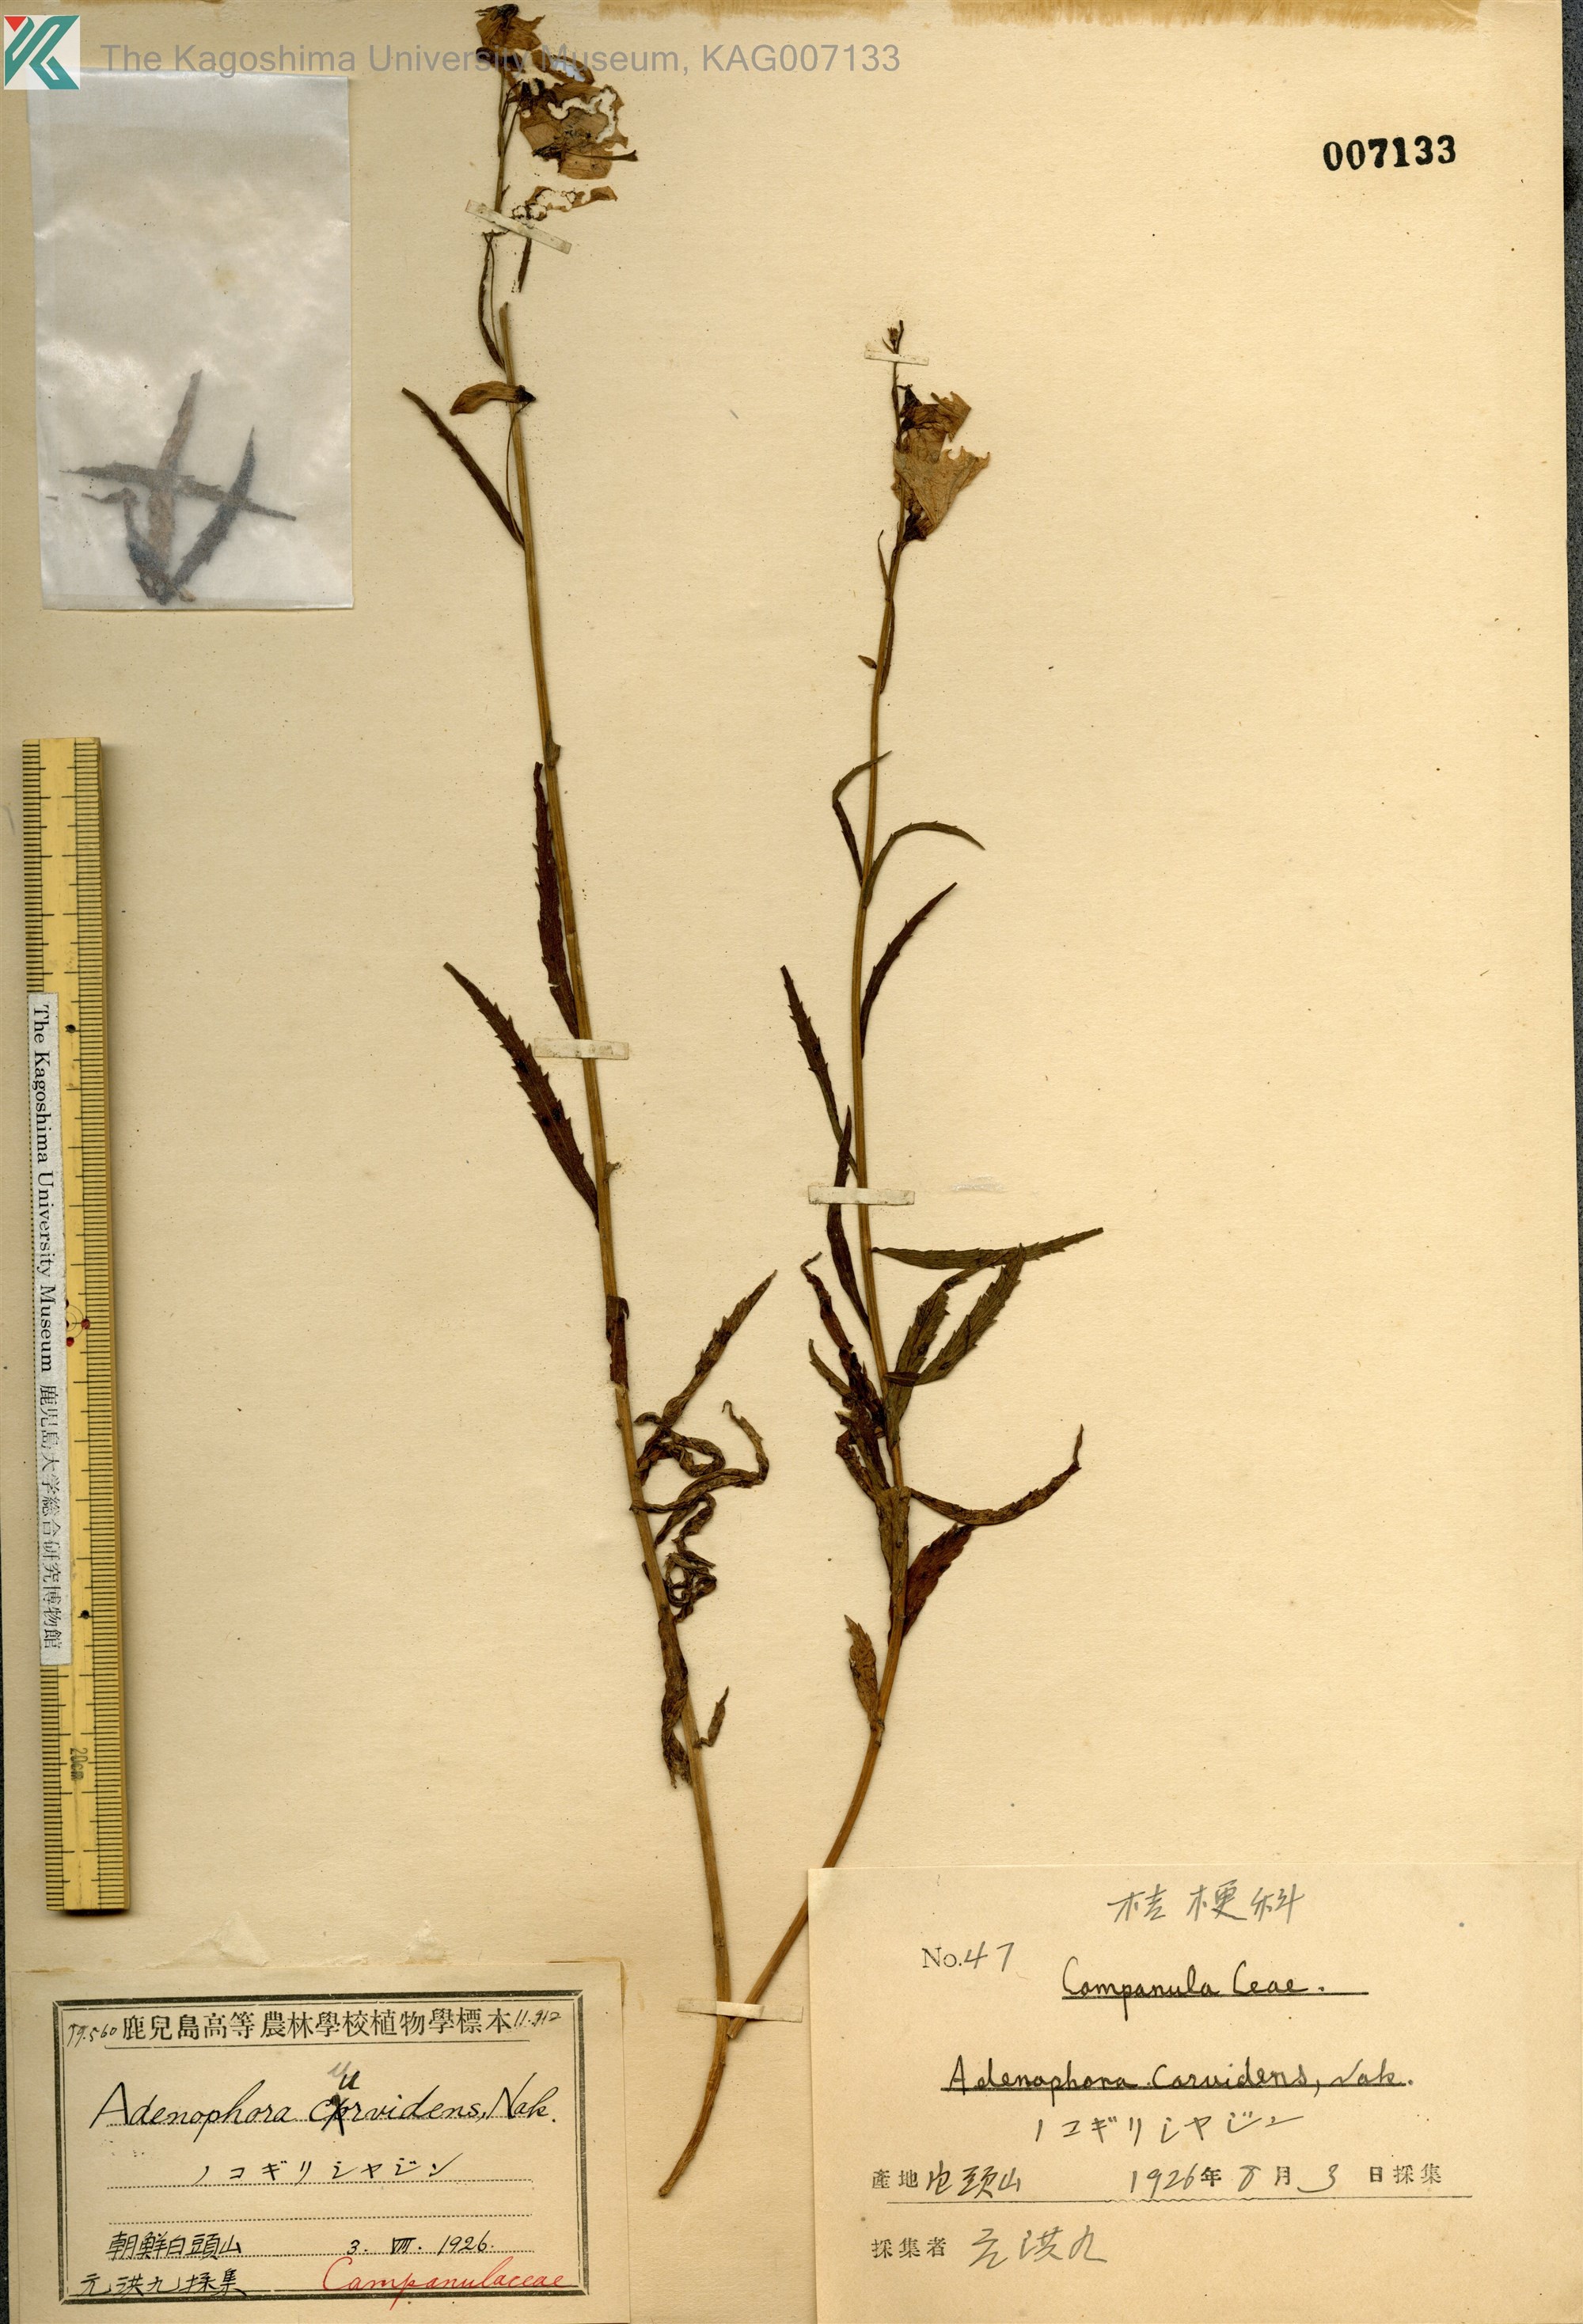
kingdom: Plantae
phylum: Tracheophyta
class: Magnoliopsida
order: Asterales
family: Campanulaceae
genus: Adenophora
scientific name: Adenophora pereskiifolia
